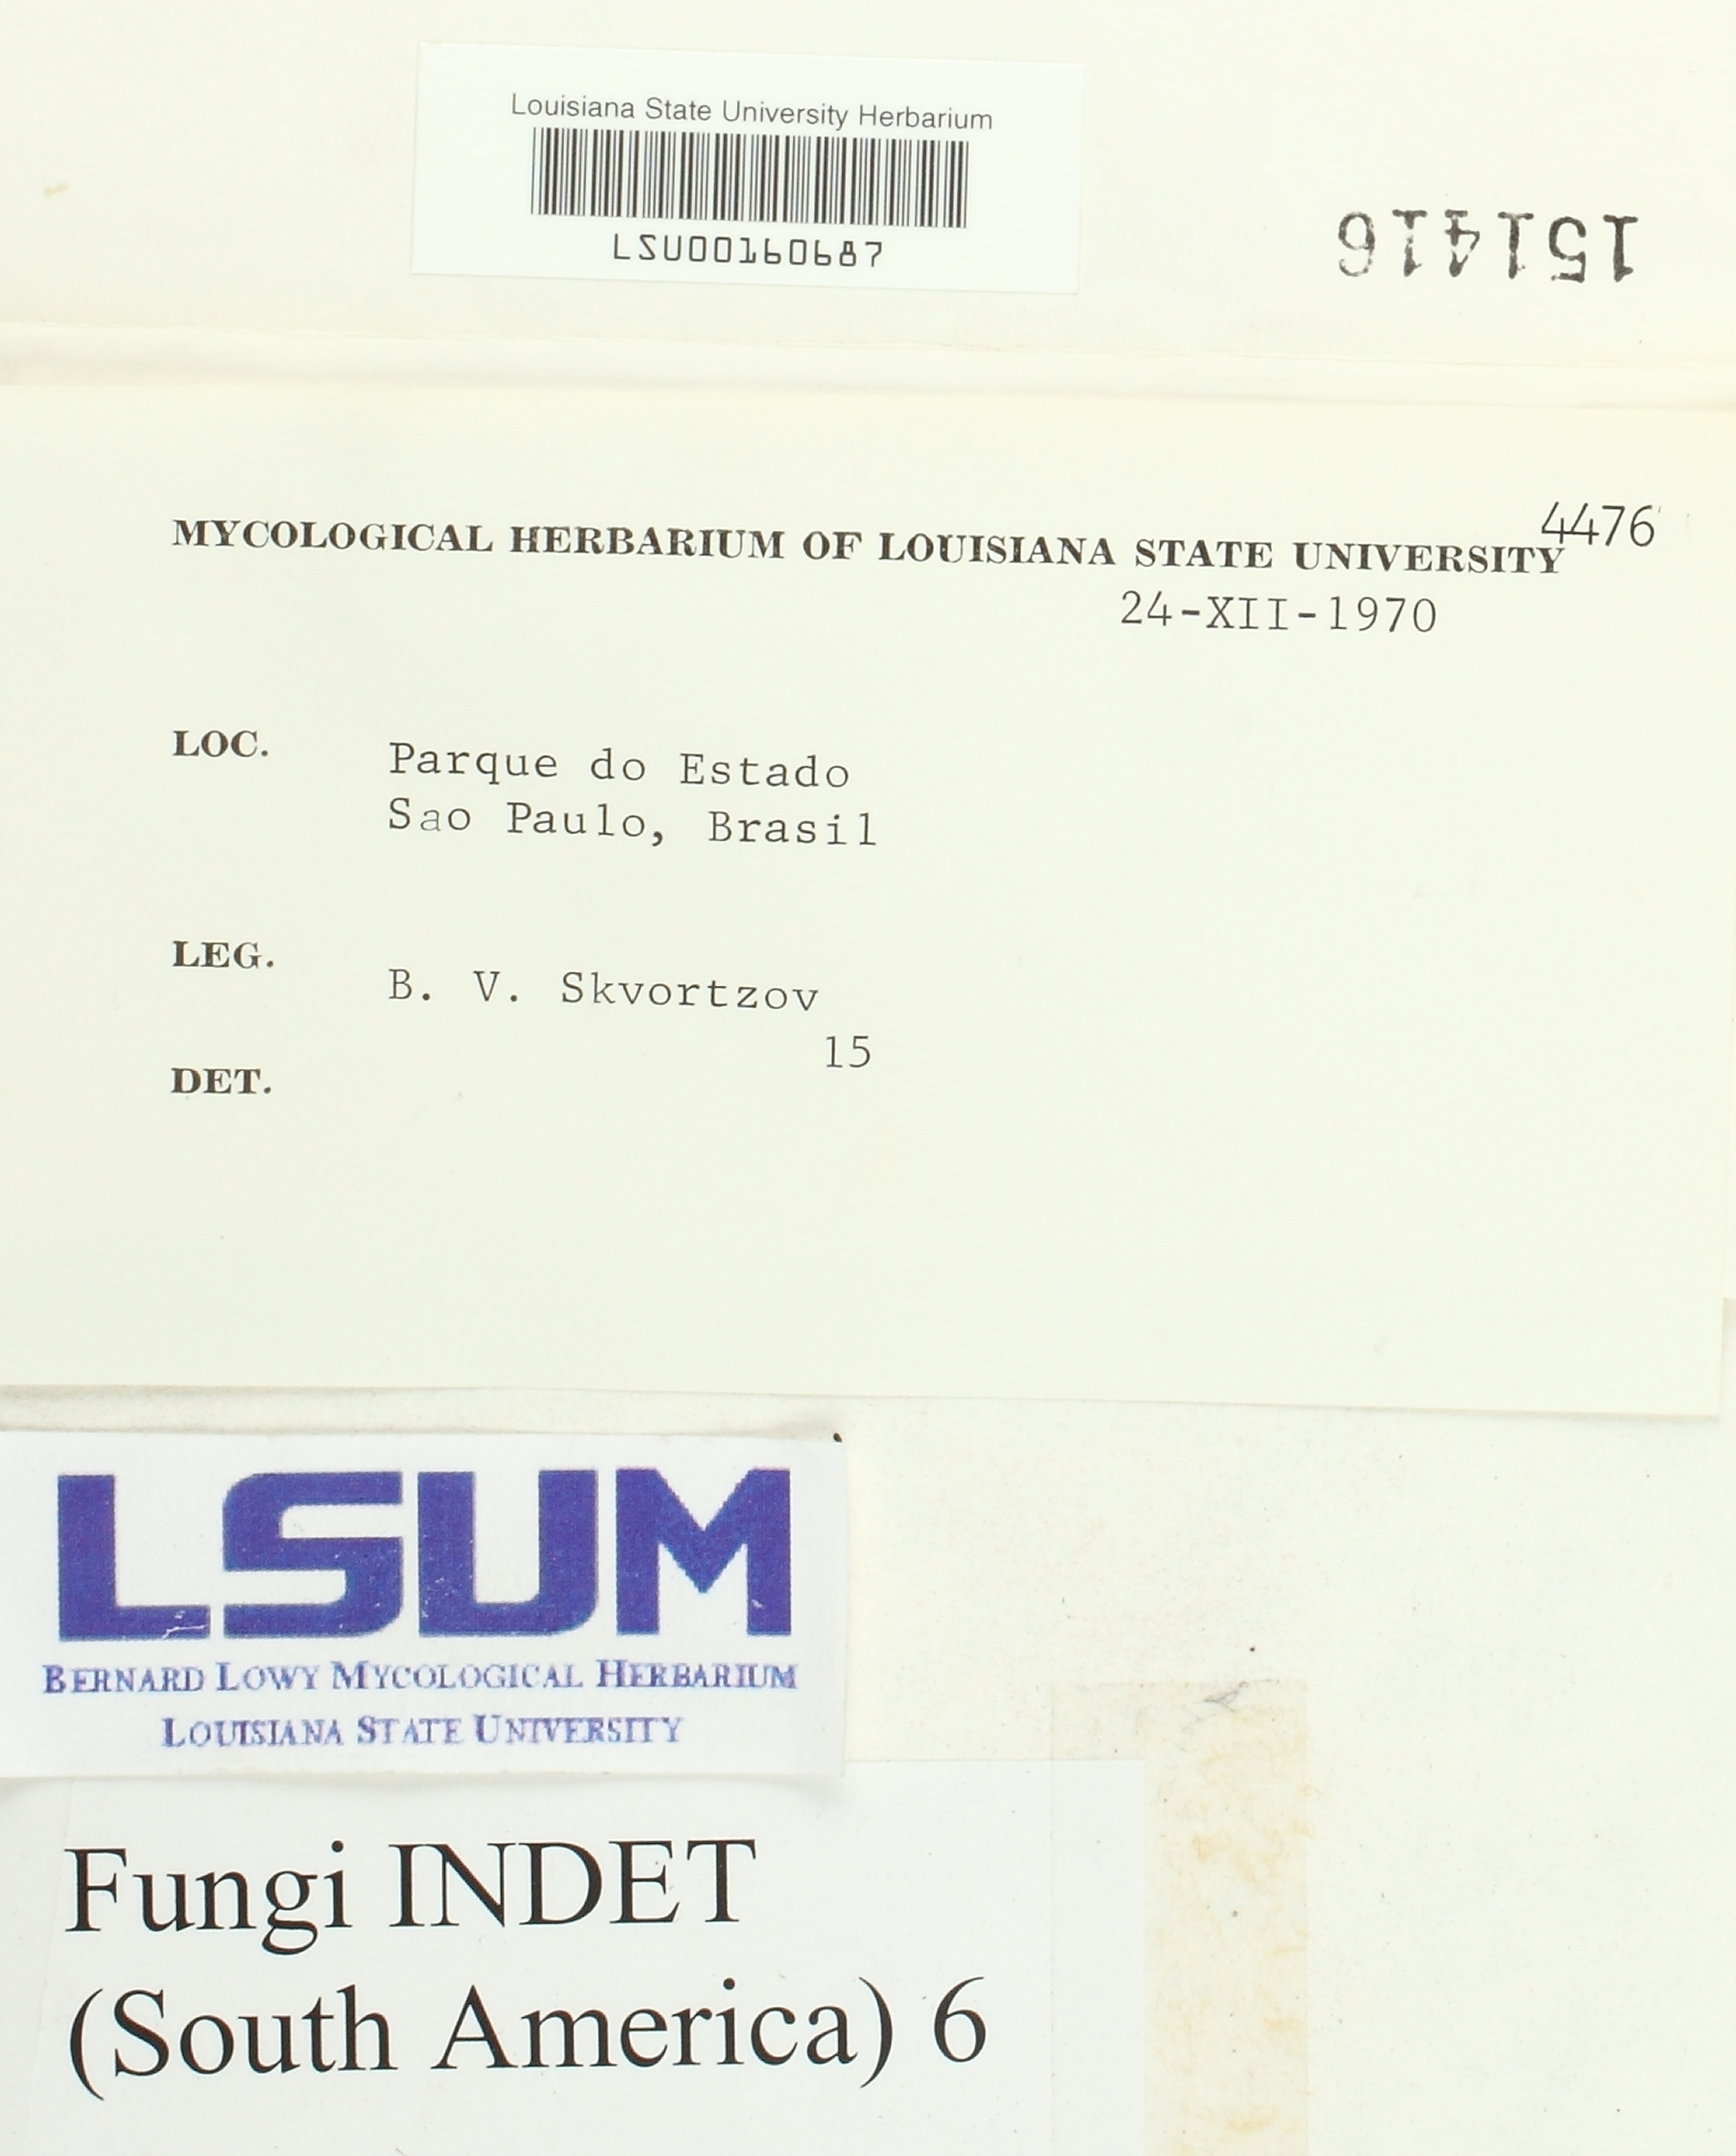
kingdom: Fungi
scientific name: Fungi
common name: Fungi
